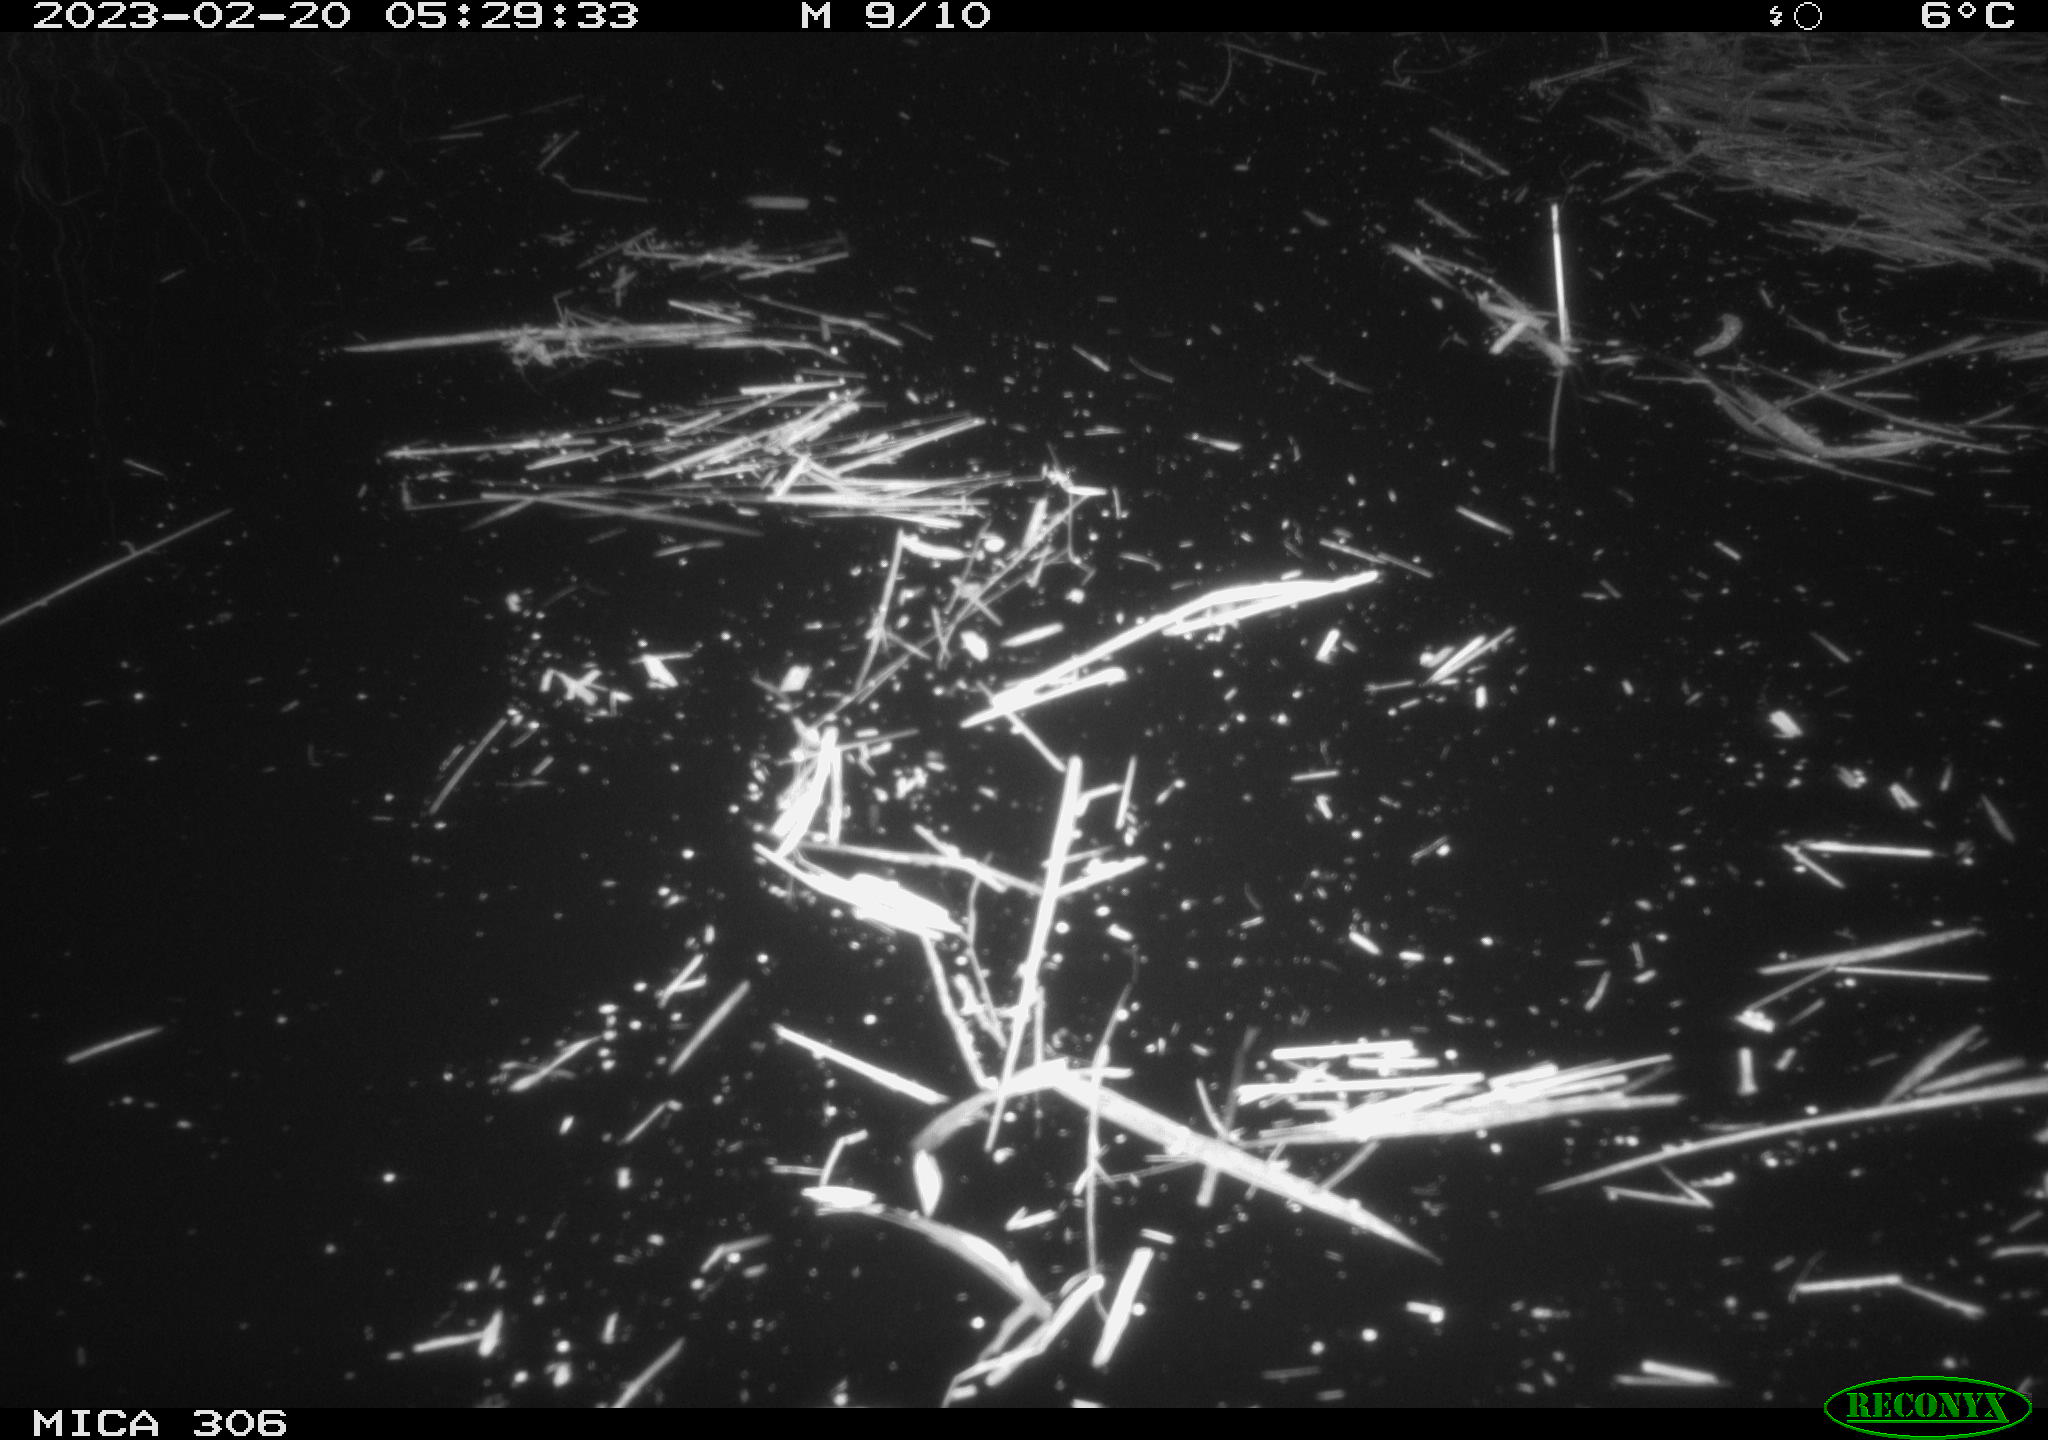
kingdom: Animalia
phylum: Chordata
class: Mammalia
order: Rodentia
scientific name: Rodentia
